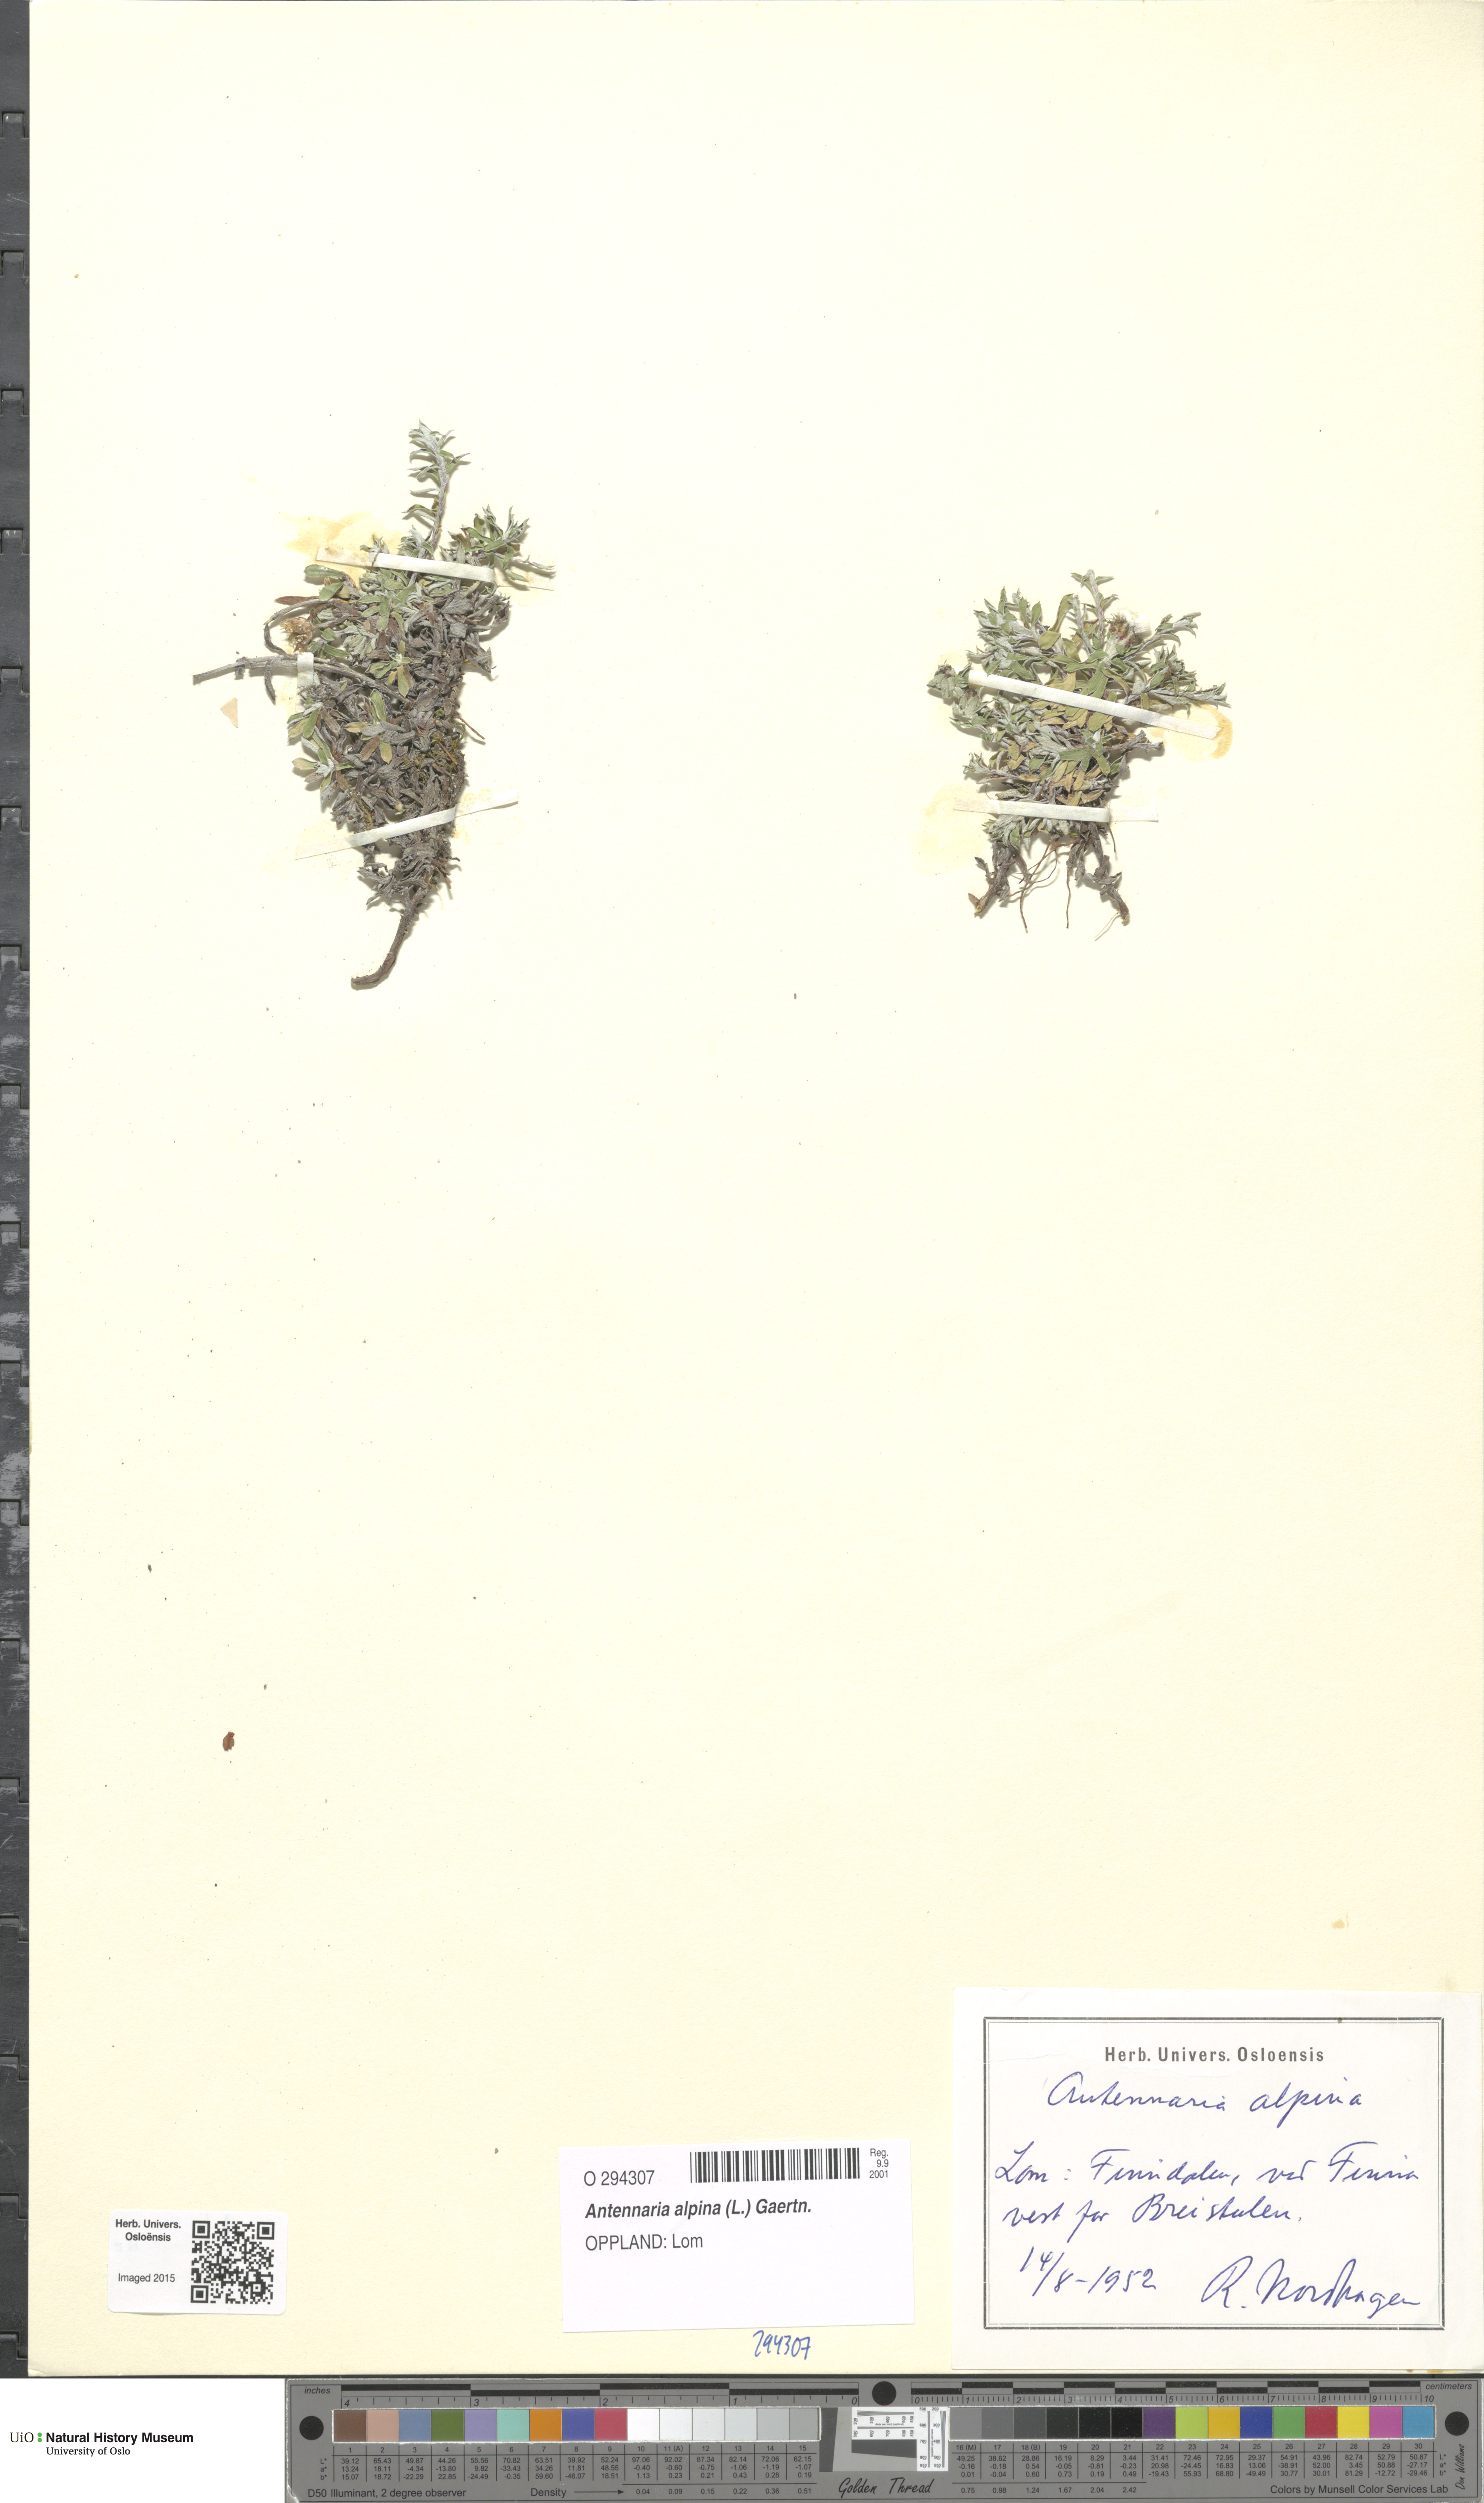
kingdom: Plantae
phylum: Tracheophyta
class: Magnoliopsida
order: Asterales
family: Asteraceae
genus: Antennaria
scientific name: Antennaria alpina
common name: Alpine pussytoes
